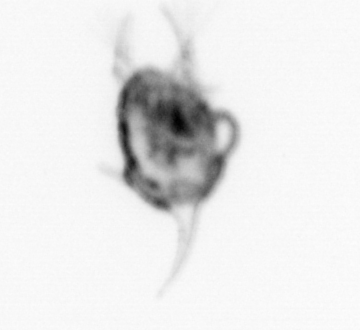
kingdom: Animalia
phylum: Arthropoda
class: Malacostraca
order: Decapoda
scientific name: Decapoda
